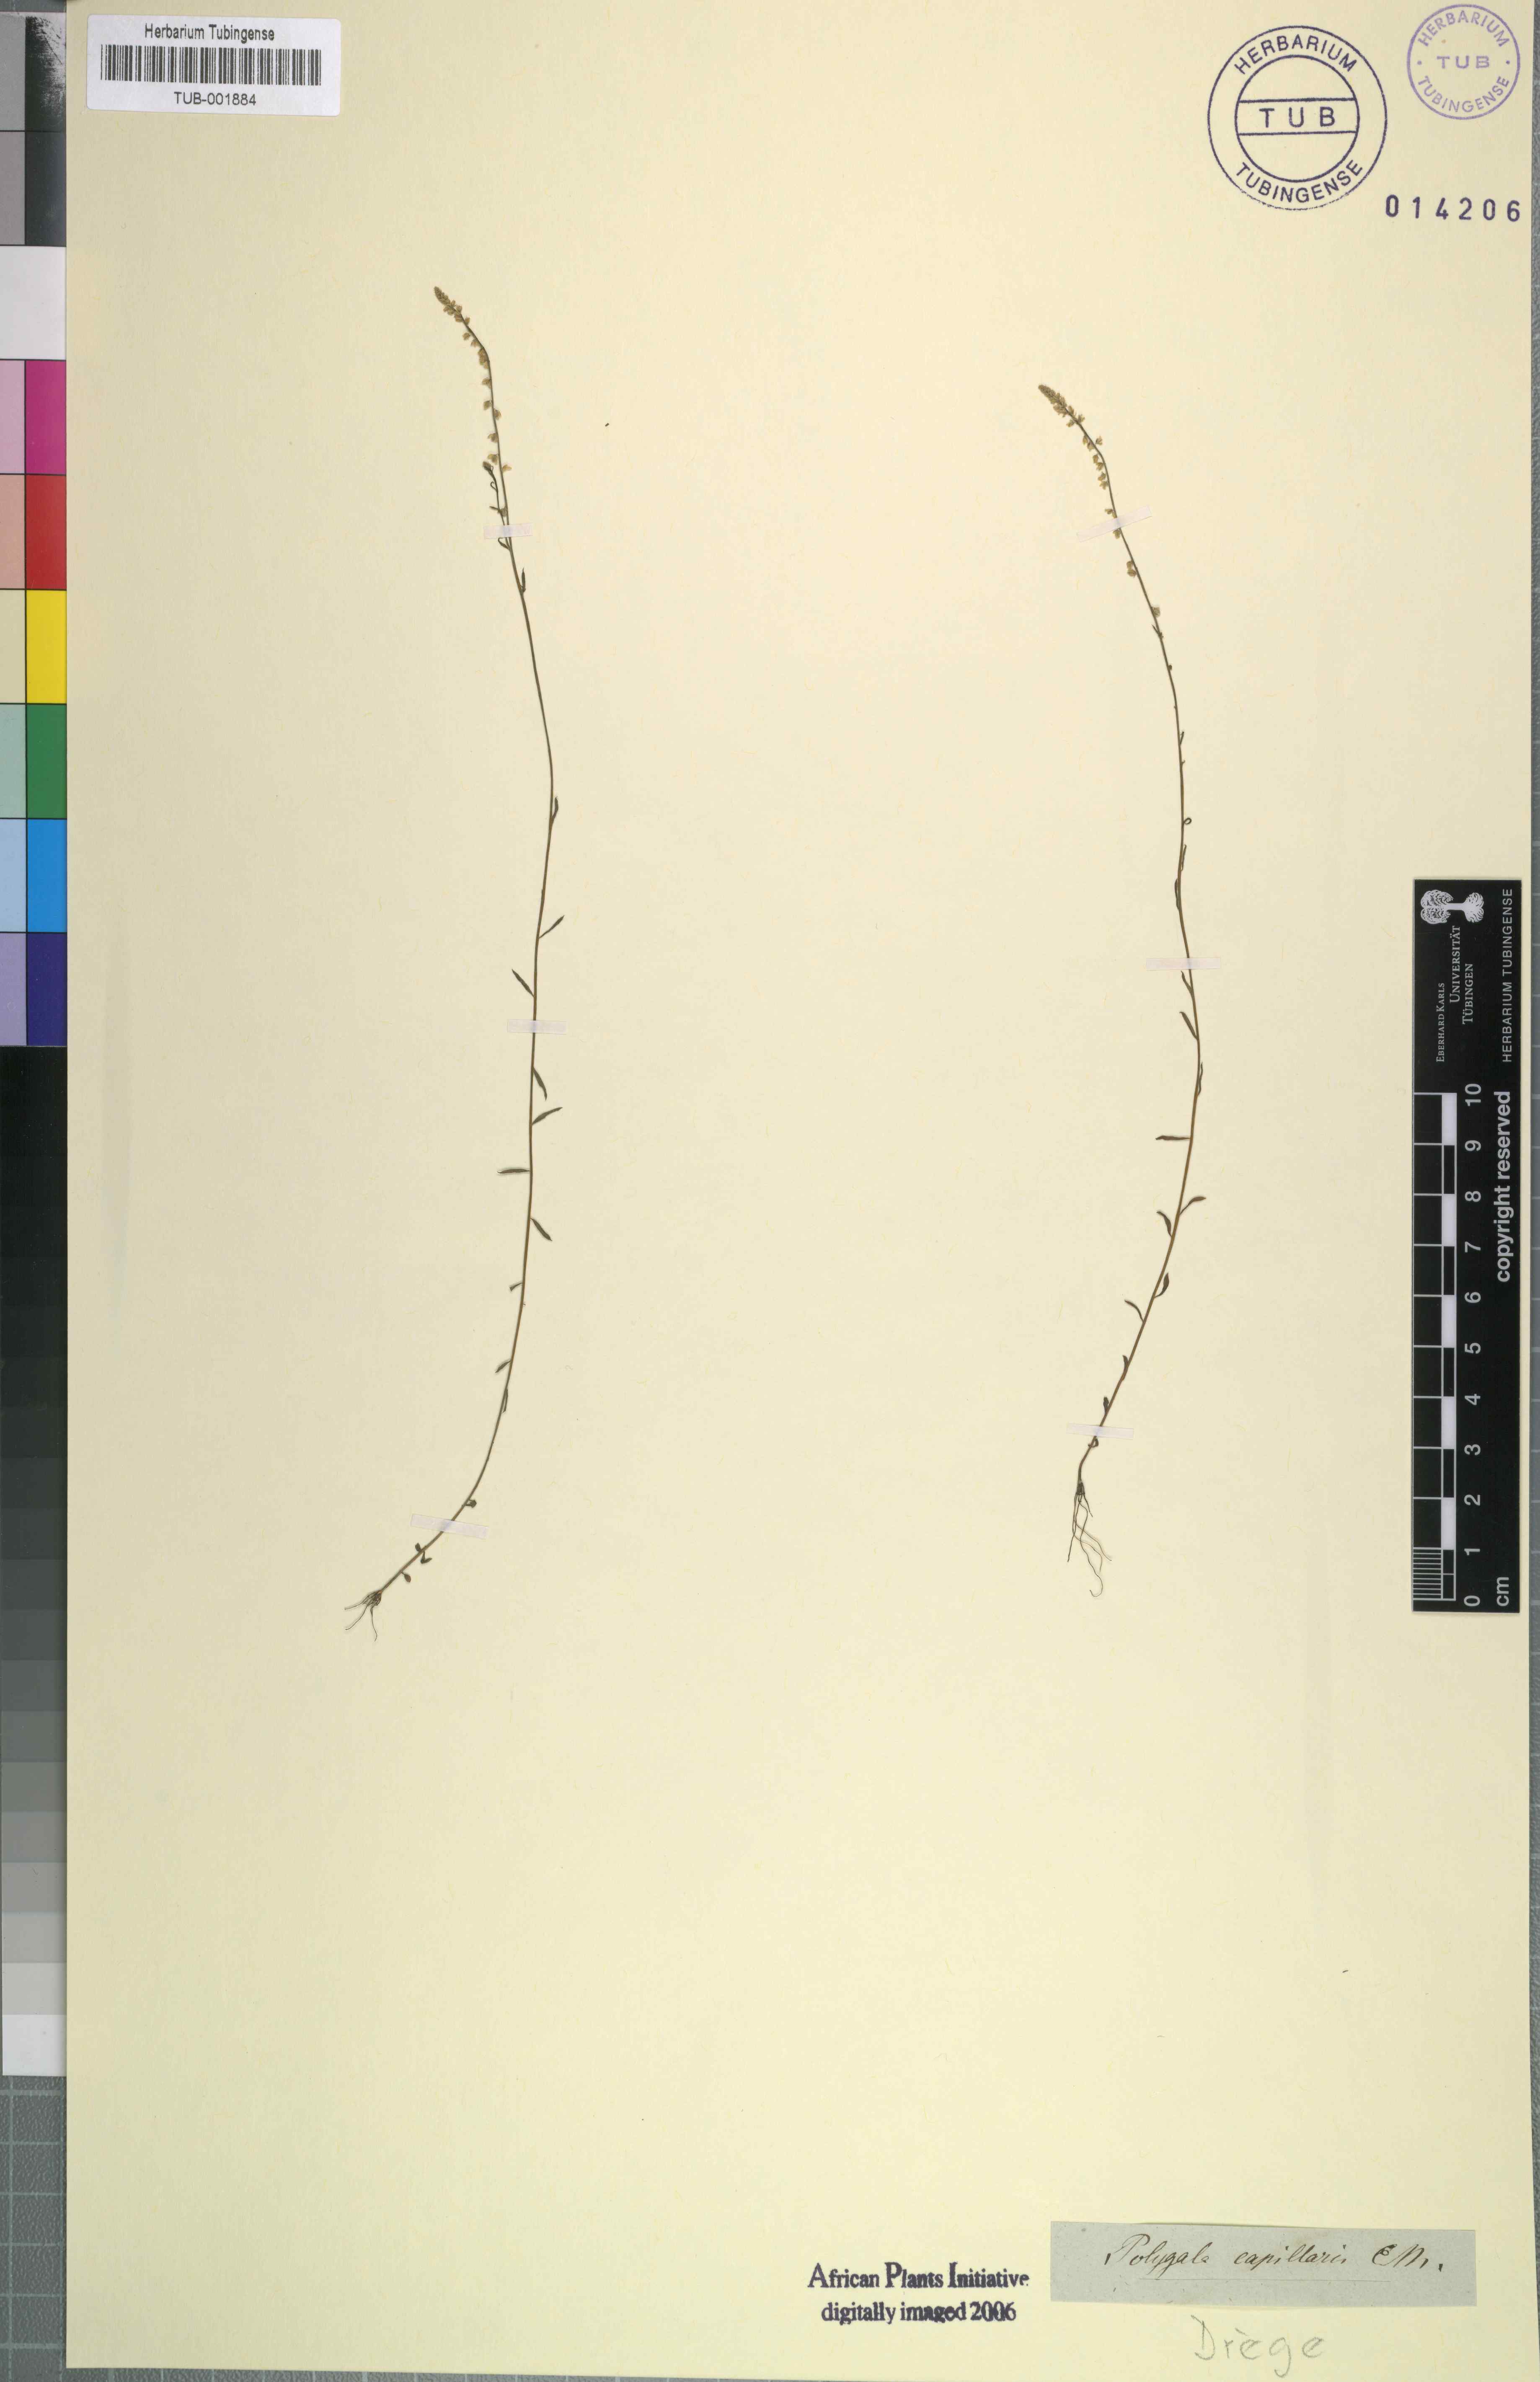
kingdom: Plantae
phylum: Tracheophyta
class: Magnoliopsida
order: Fabales
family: Polygalaceae
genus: Polygala
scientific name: Polygala capillaris
